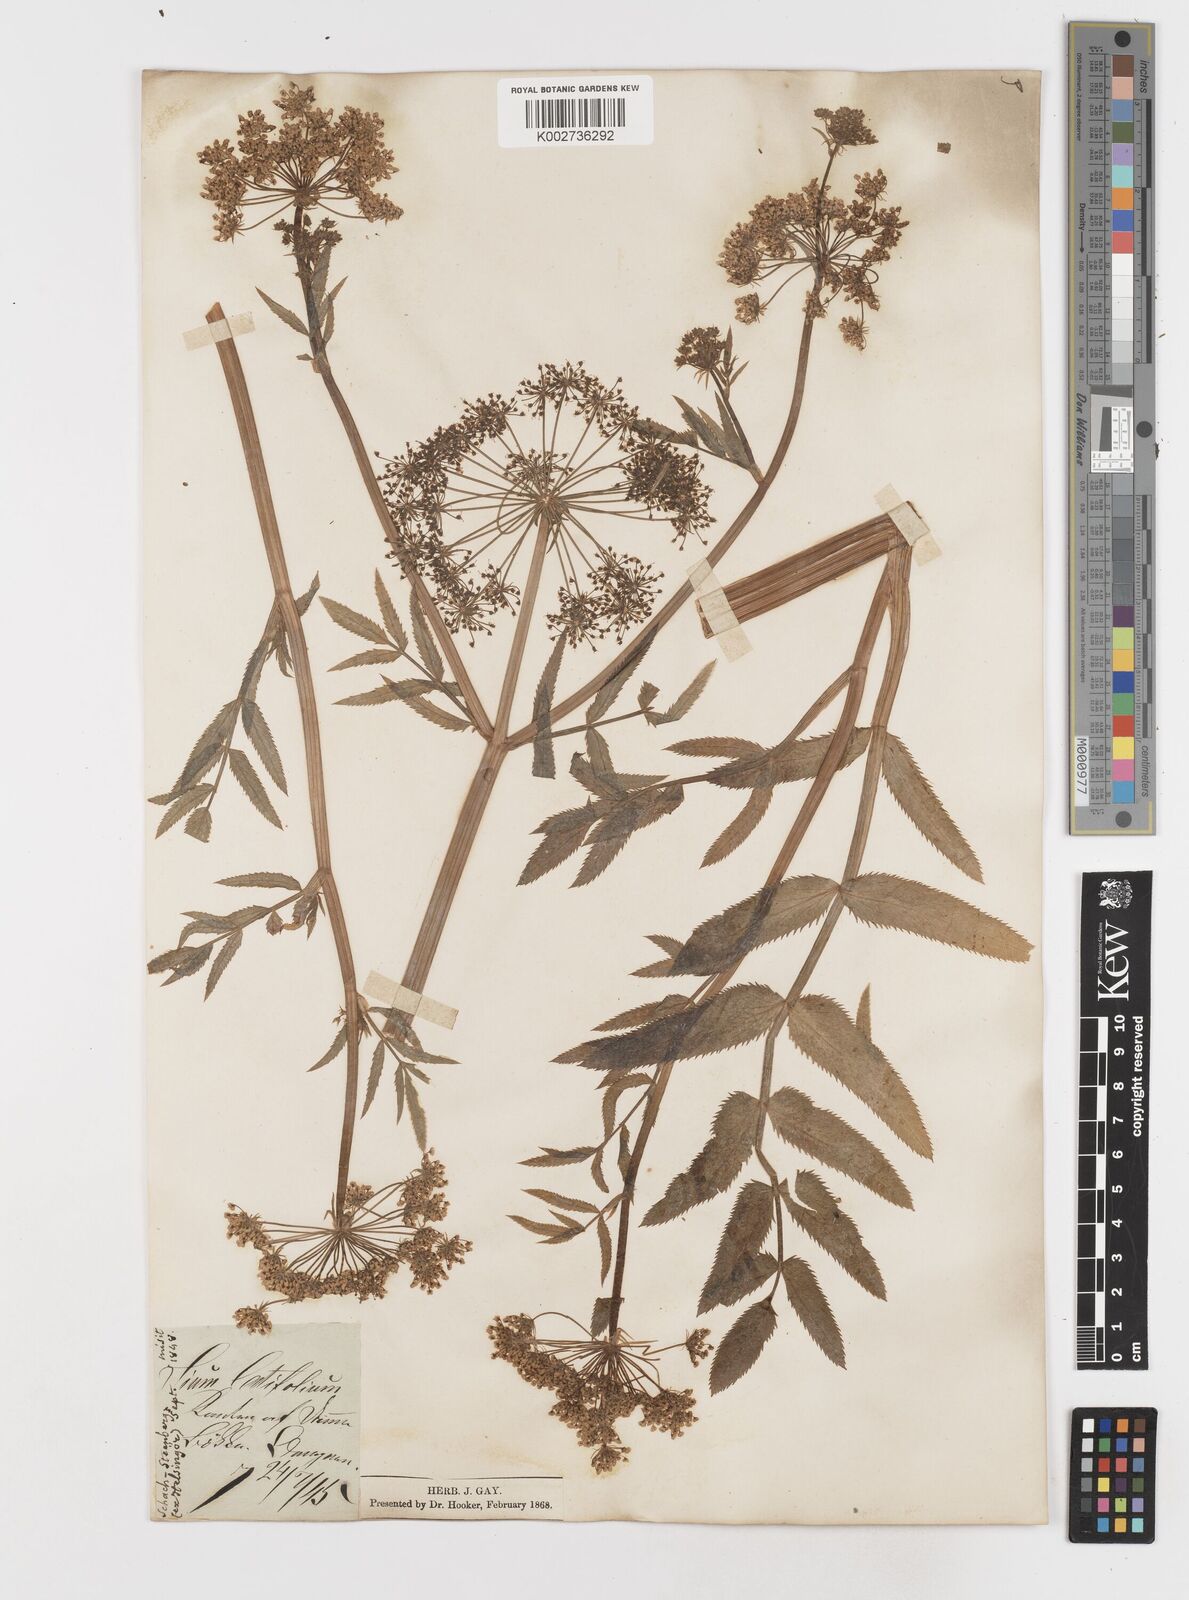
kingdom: Plantae
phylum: Tracheophyta
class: Magnoliopsida
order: Apiales
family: Apiaceae
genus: Sium
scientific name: Sium latifolium
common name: Greater water-parsnip
